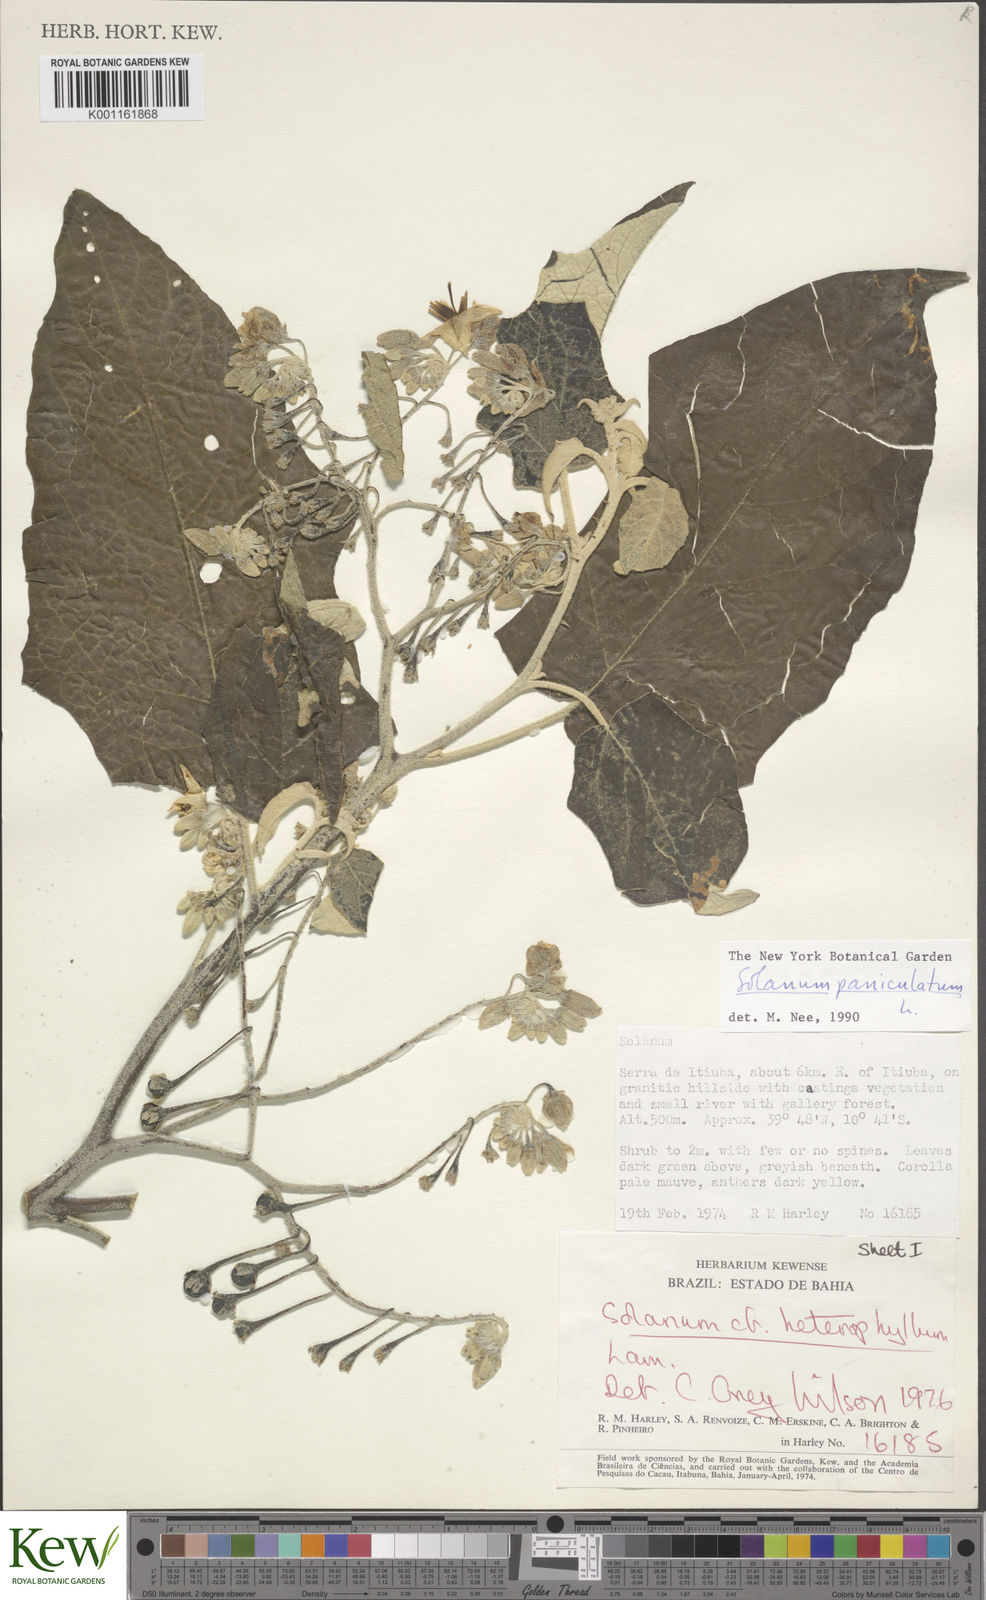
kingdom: Plantae
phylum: Tracheophyta
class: Magnoliopsida
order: Solanales
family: Solanaceae
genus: Solanum
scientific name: Solanum paniculatum
